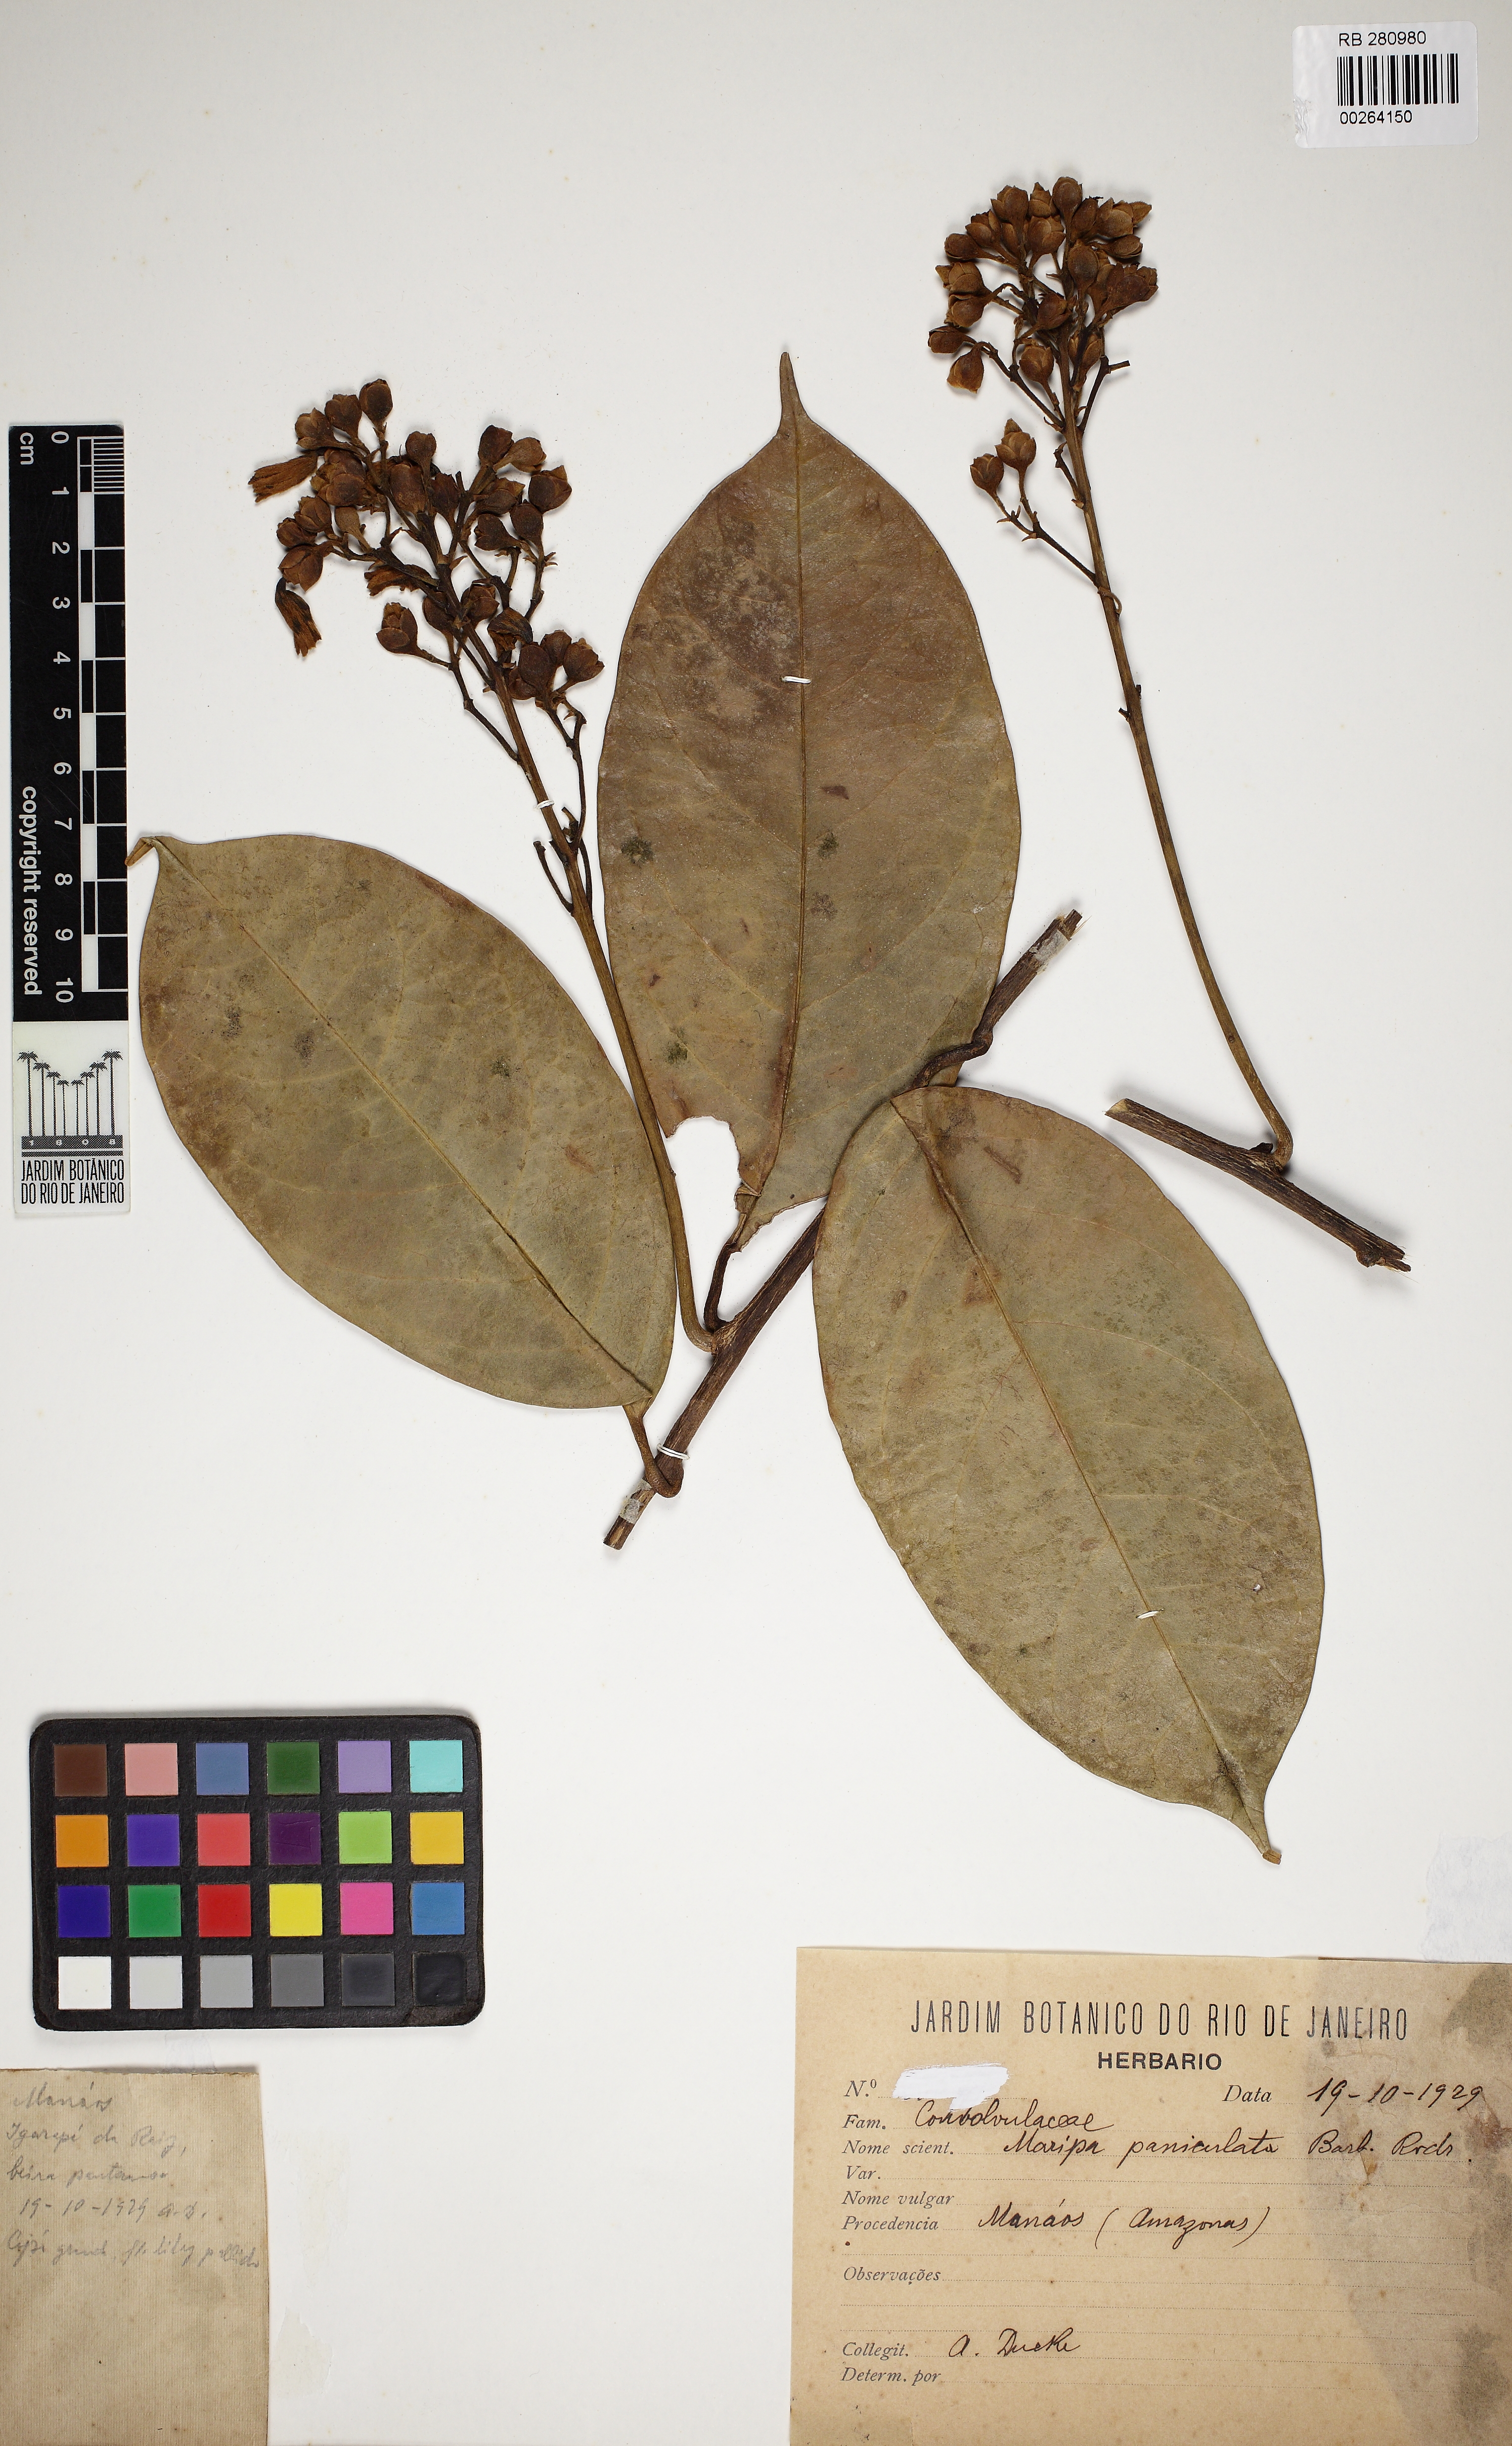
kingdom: Plantae
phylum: Tracheophyta
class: Magnoliopsida
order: Solanales
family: Convolvulaceae
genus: Maripa
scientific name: Maripa paniculata
